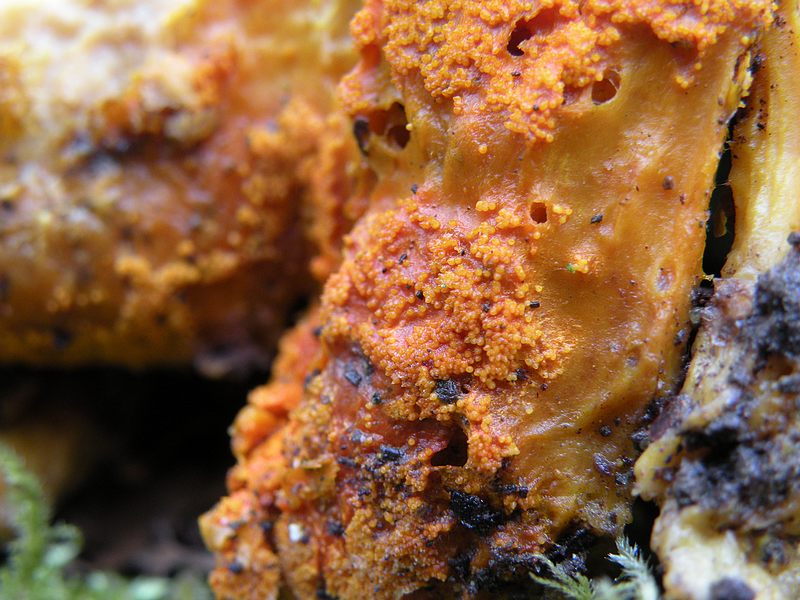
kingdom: Fungi
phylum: Ascomycota
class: Sordariomycetes
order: Hypocreales
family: Hypocreaceae
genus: Hypomyces
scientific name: Hypomyces aurantius
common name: almindelig snylteskorpe
